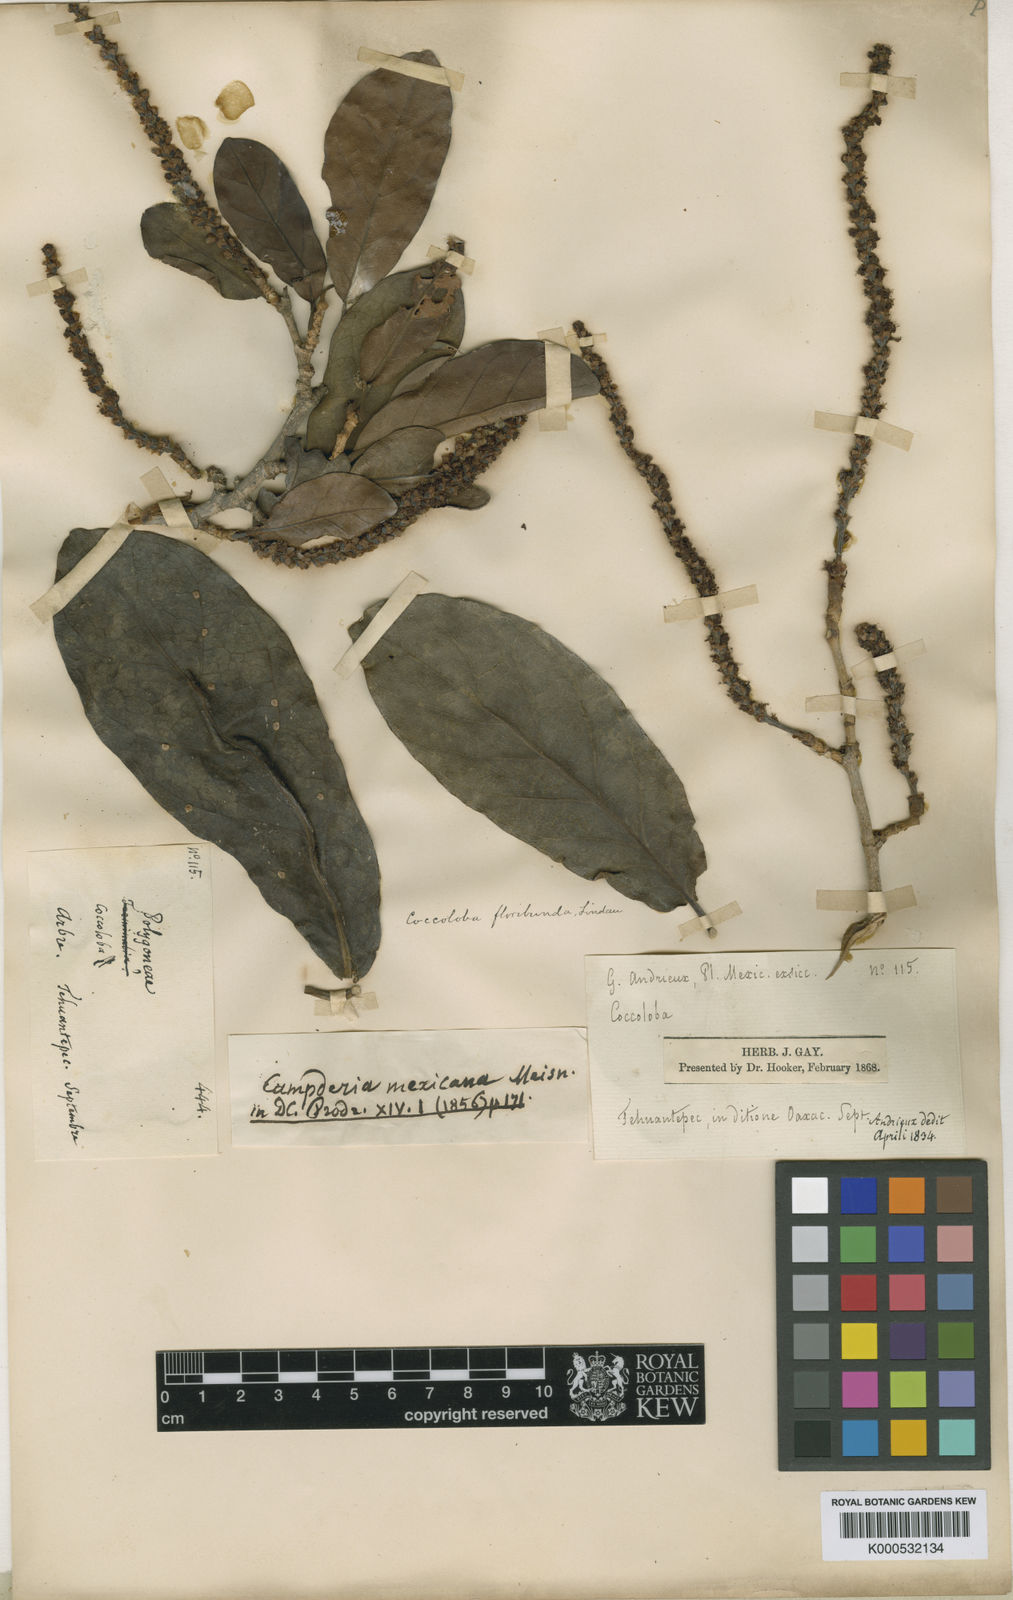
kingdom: Plantae
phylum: Tracheophyta
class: Magnoliopsida
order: Caryophyllales
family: Polygonaceae
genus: Coccoloba
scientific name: Coccoloba floribunda
